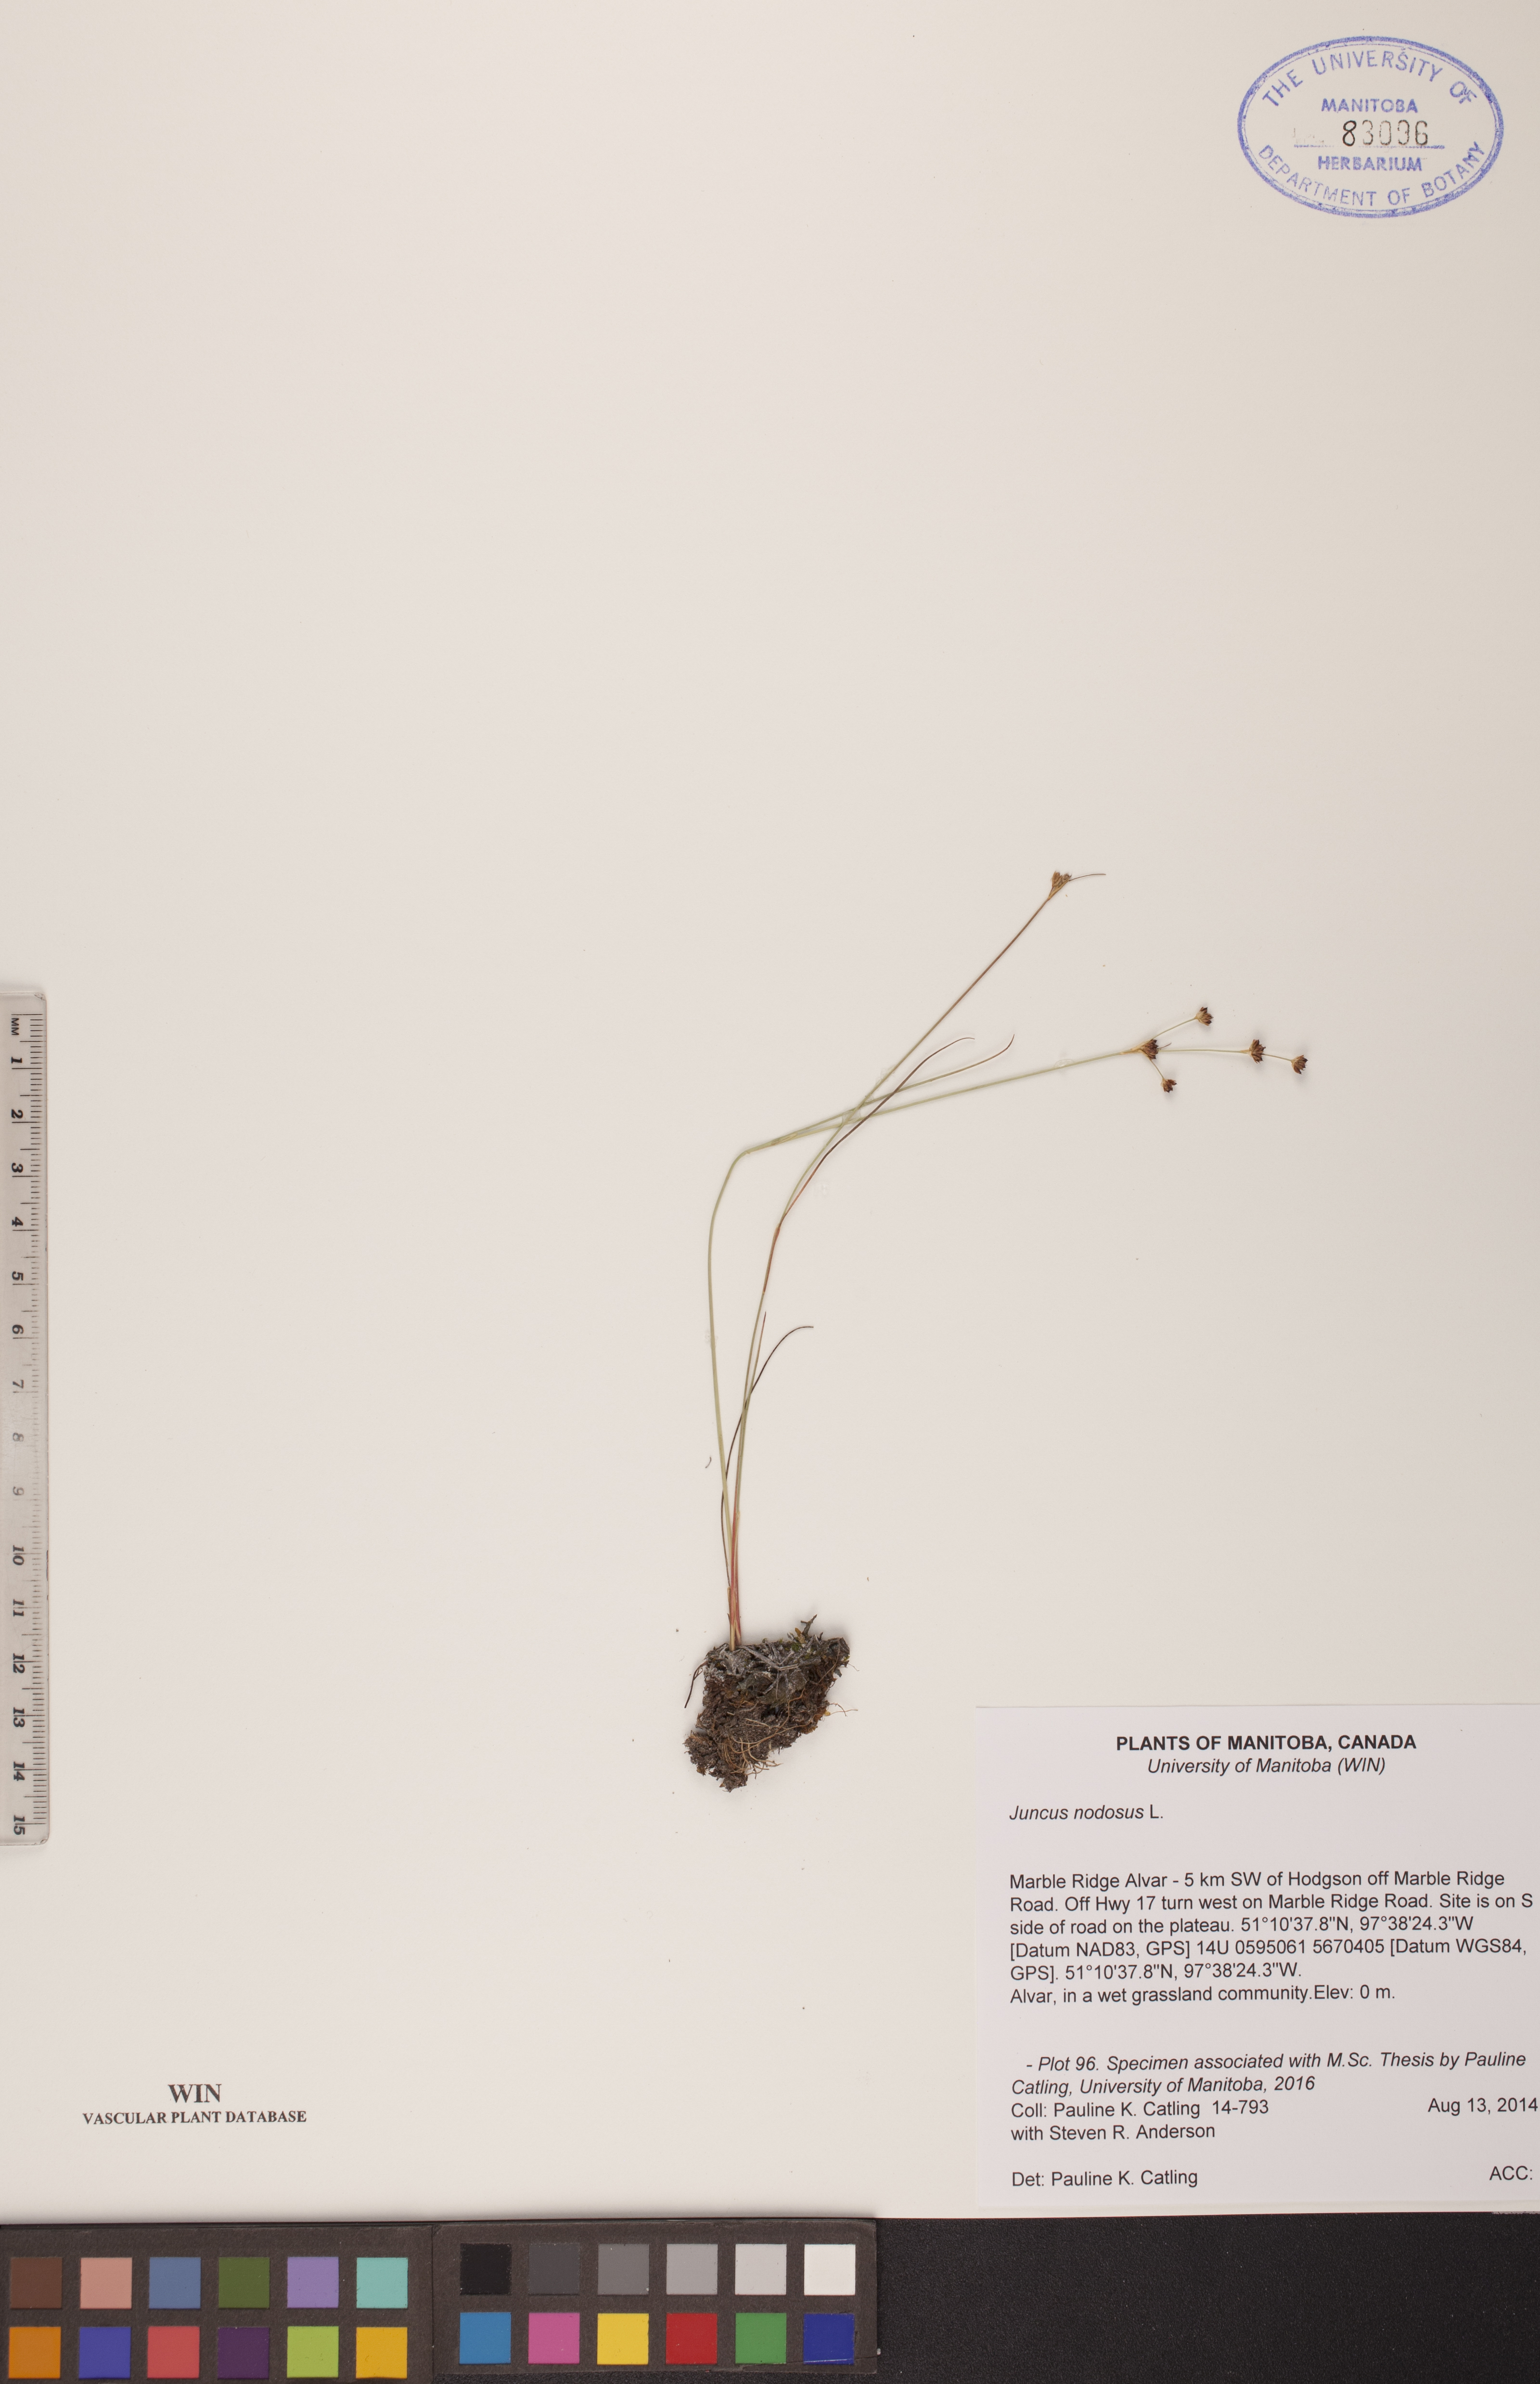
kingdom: Plantae
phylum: Tracheophyta
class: Liliopsida
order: Poales
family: Juncaceae
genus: Juncus
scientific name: Juncus nodosus
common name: Knotted rush
